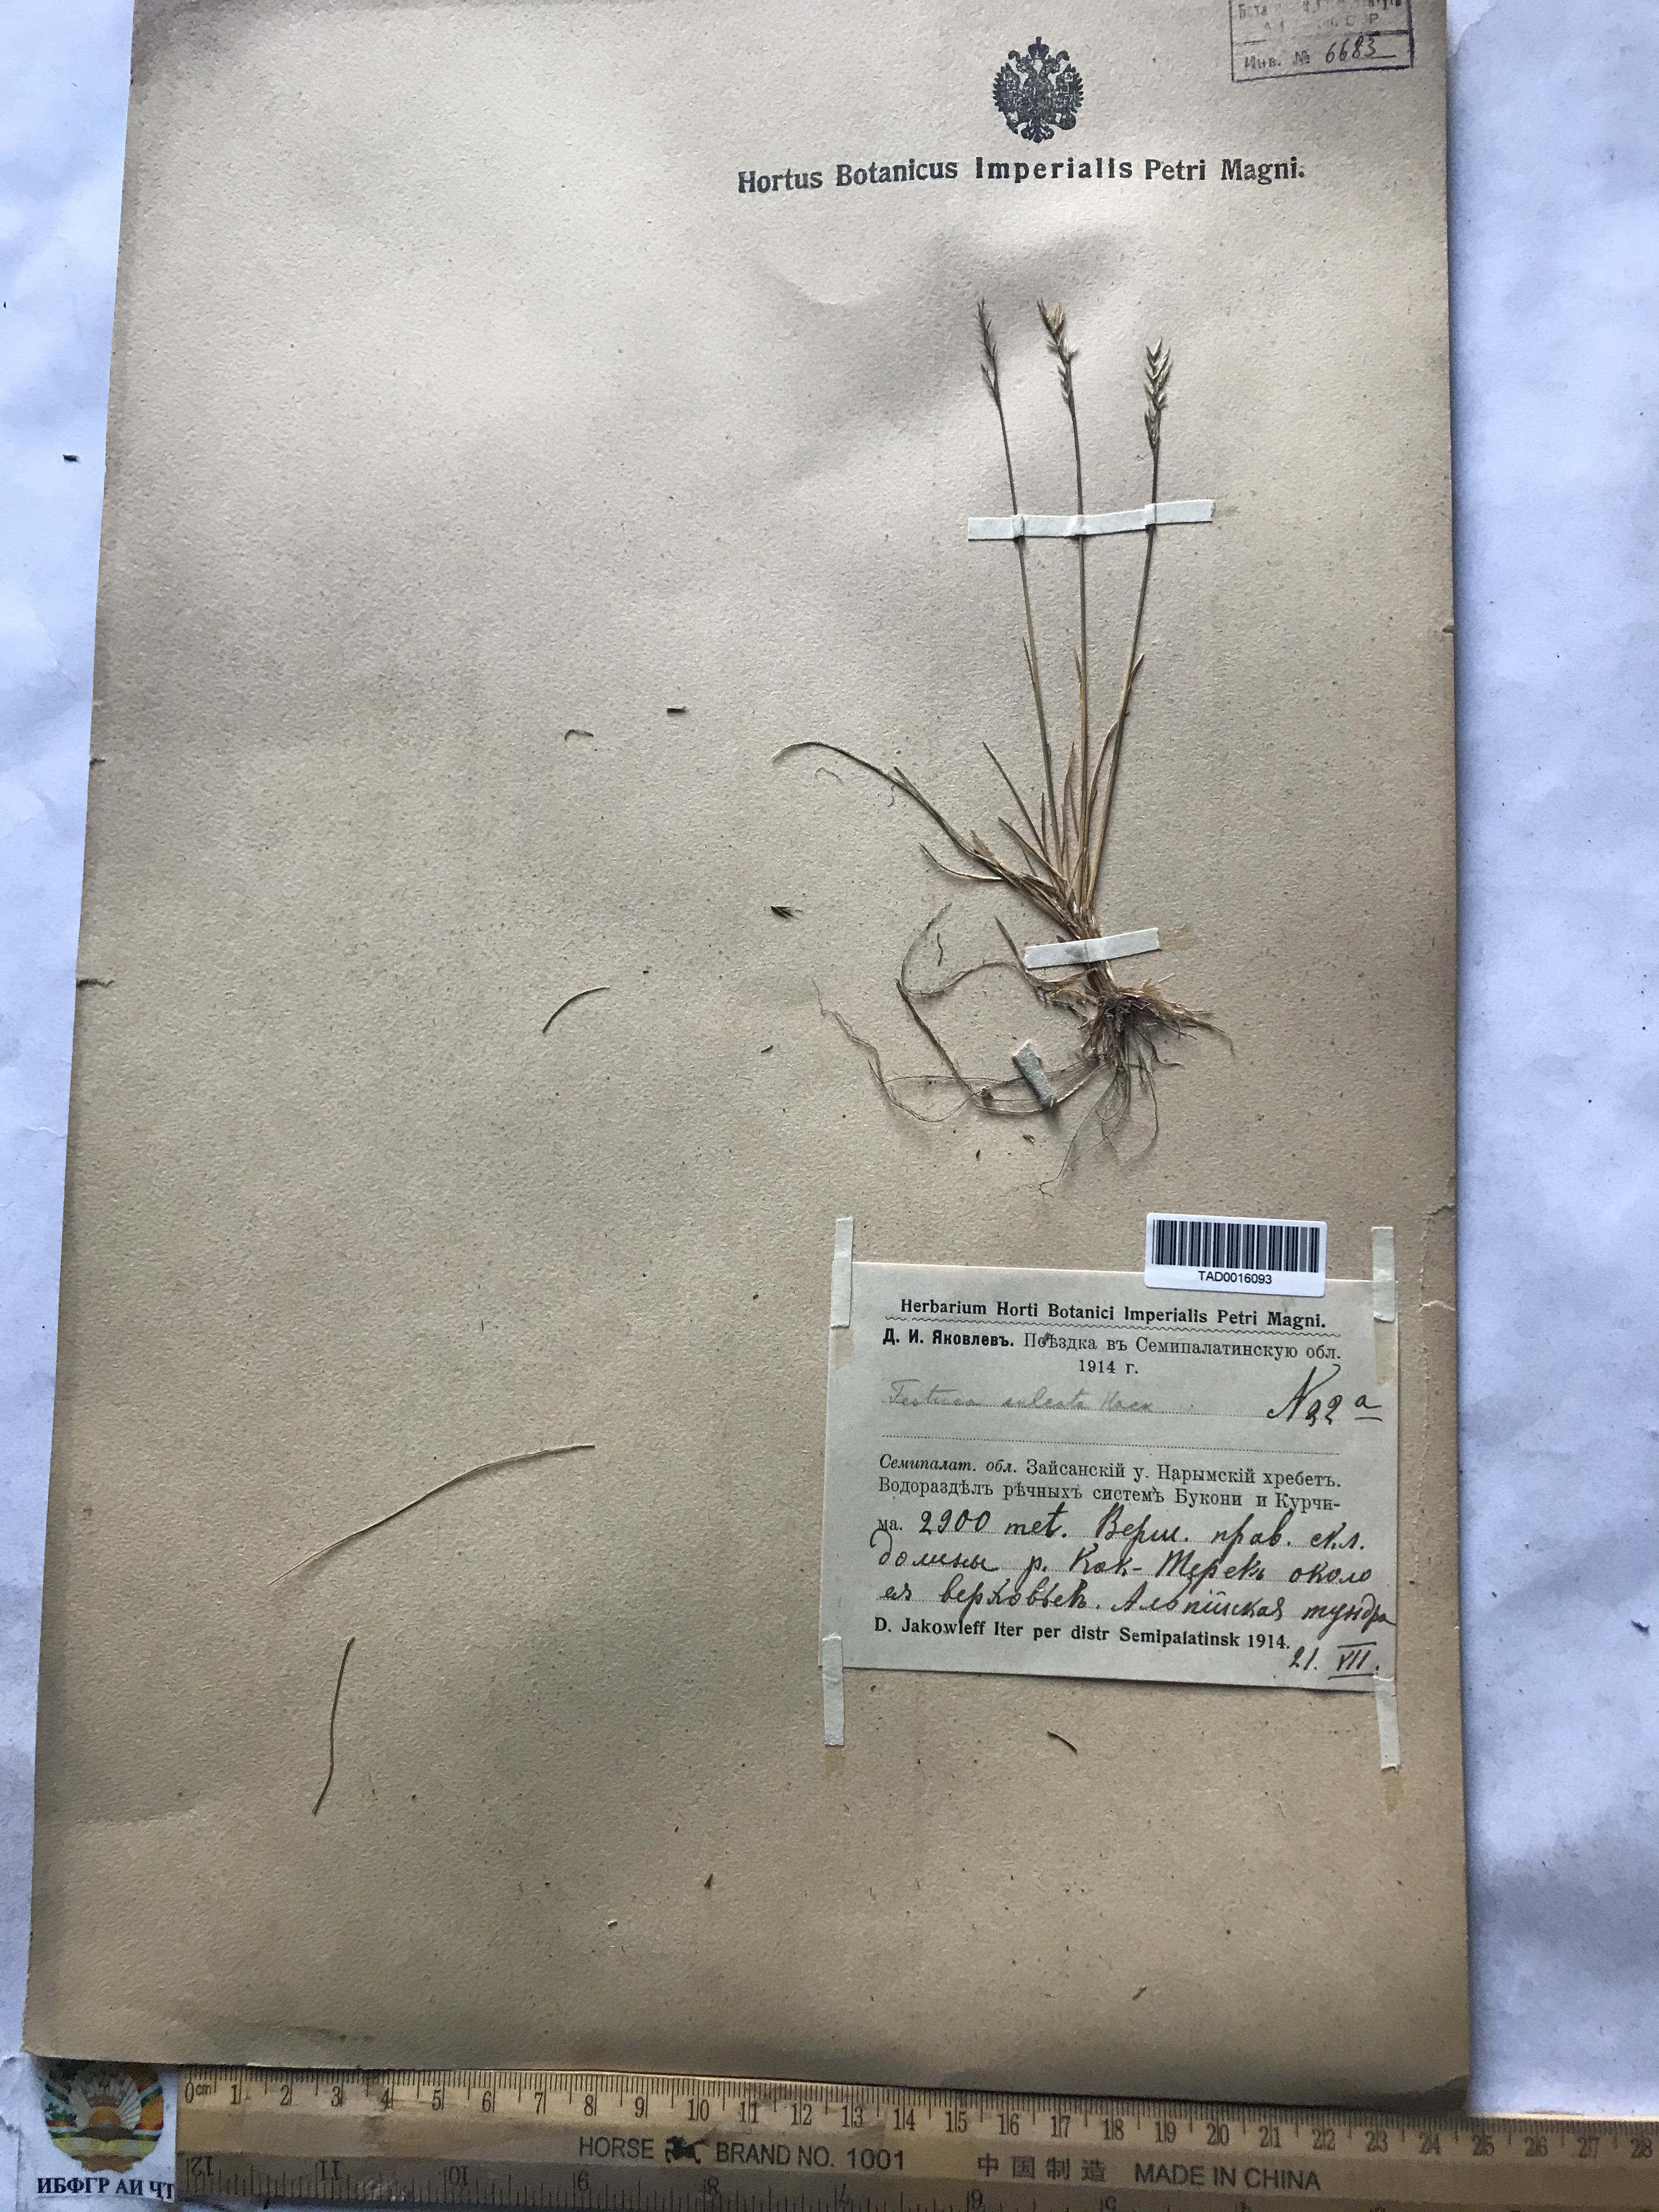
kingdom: Plantae
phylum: Tracheophyta
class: Liliopsida
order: Poales
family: Poaceae
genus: Festuca
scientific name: Festuca sulcata
